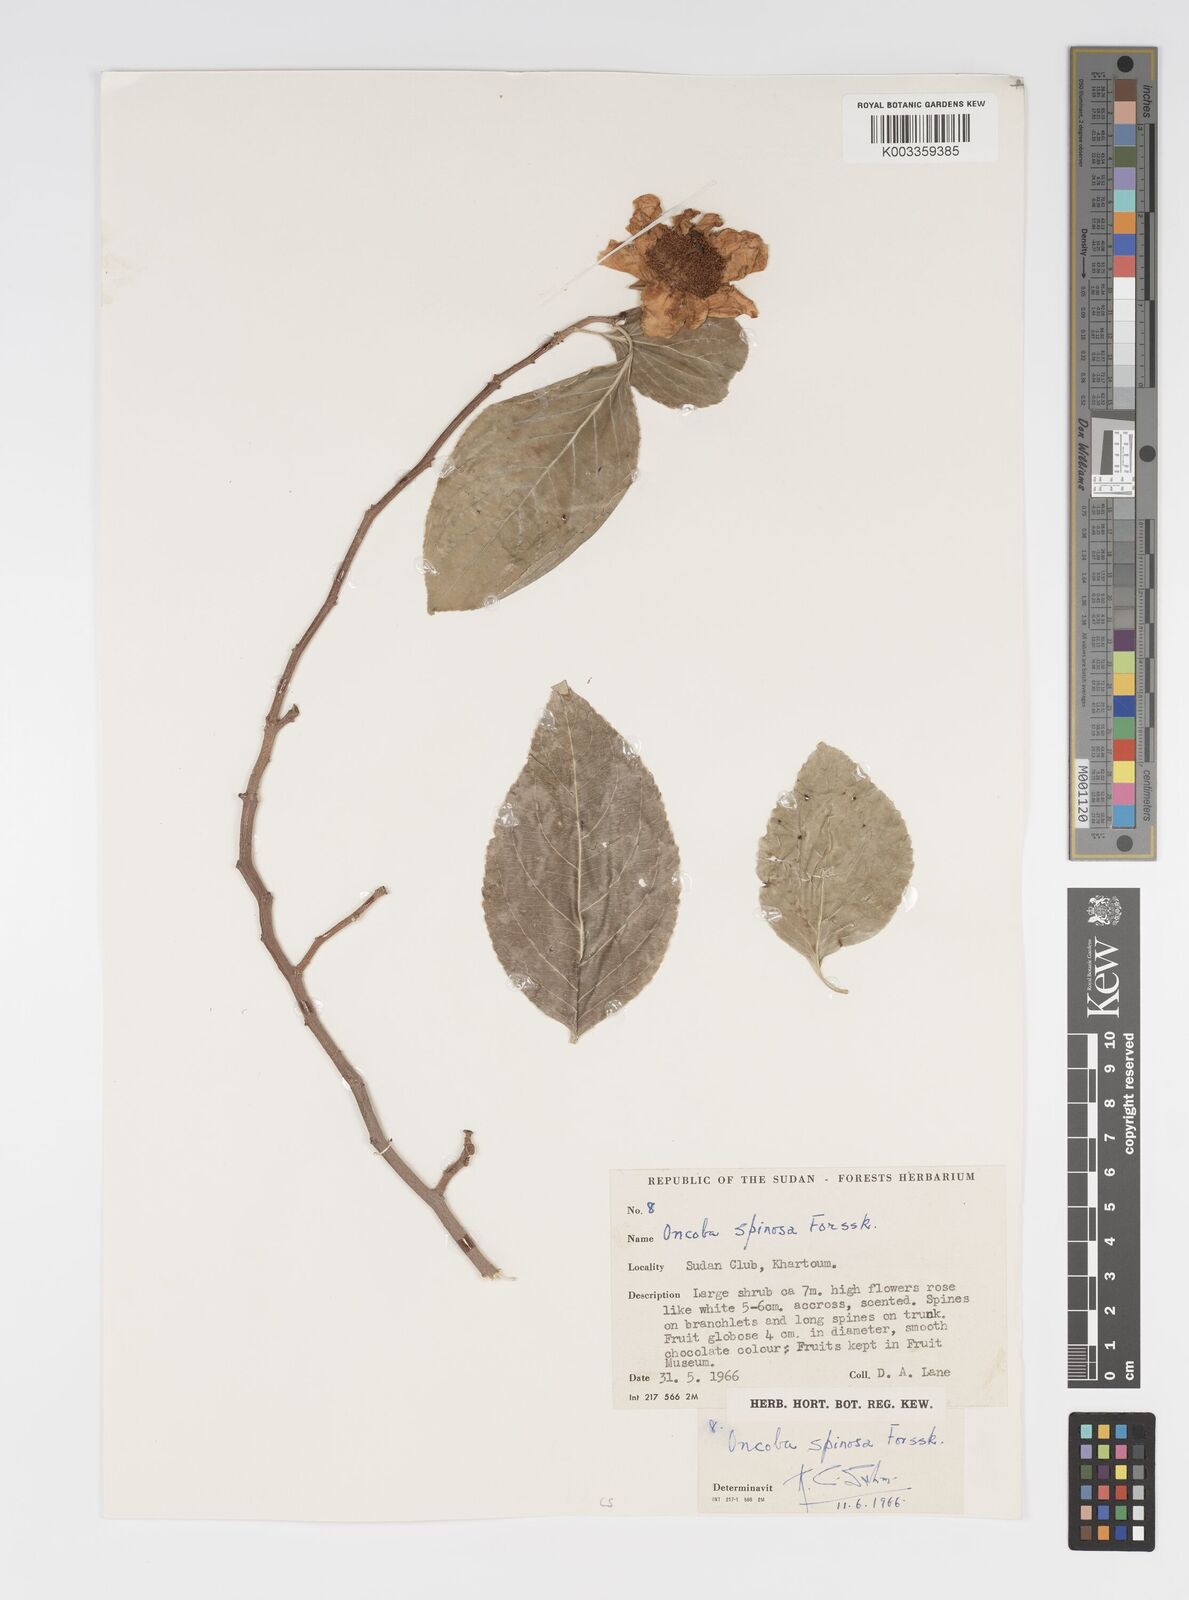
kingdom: Plantae
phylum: Tracheophyta
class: Magnoliopsida
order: Malpighiales
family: Salicaceae
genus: Oncoba
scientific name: Oncoba spinosa
